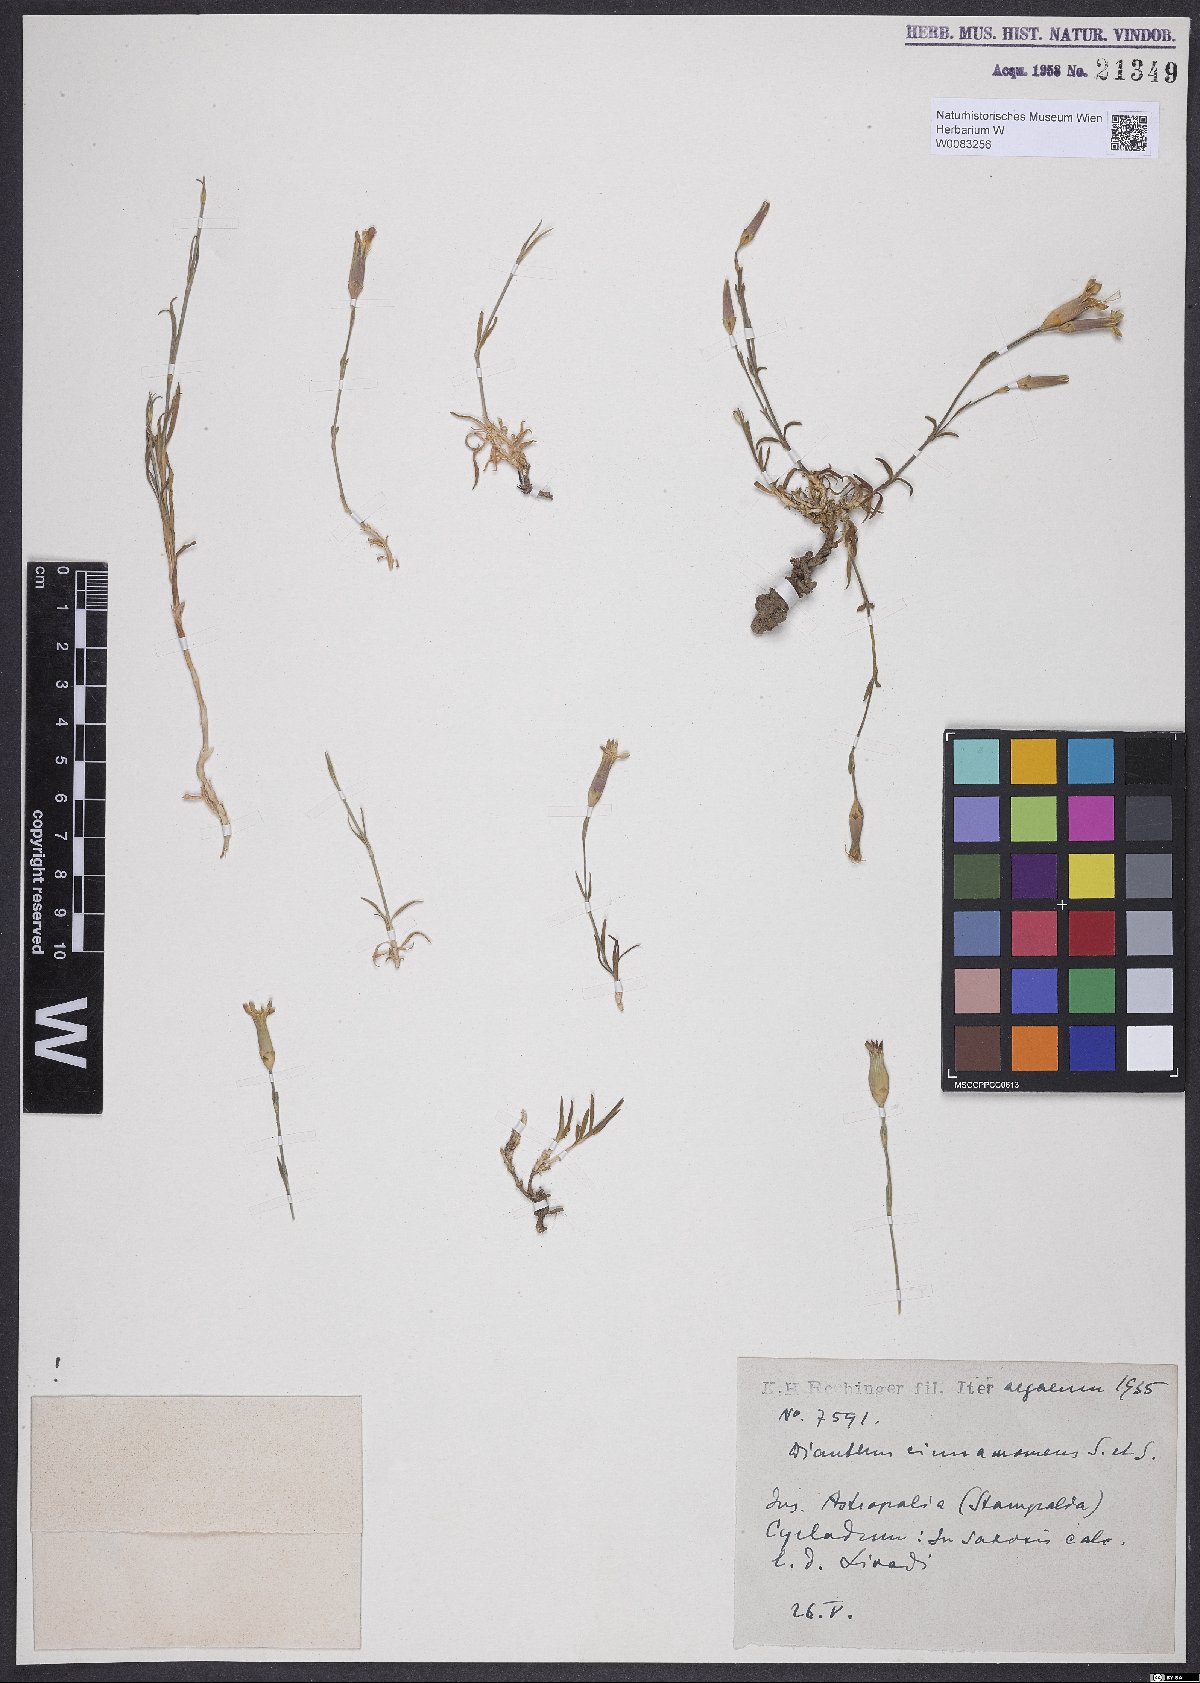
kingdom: Plantae
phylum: Tracheophyta
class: Magnoliopsida
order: Caryophyllales
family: Caryophyllaceae
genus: Dianthus
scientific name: Dianthus cinnamomeus
